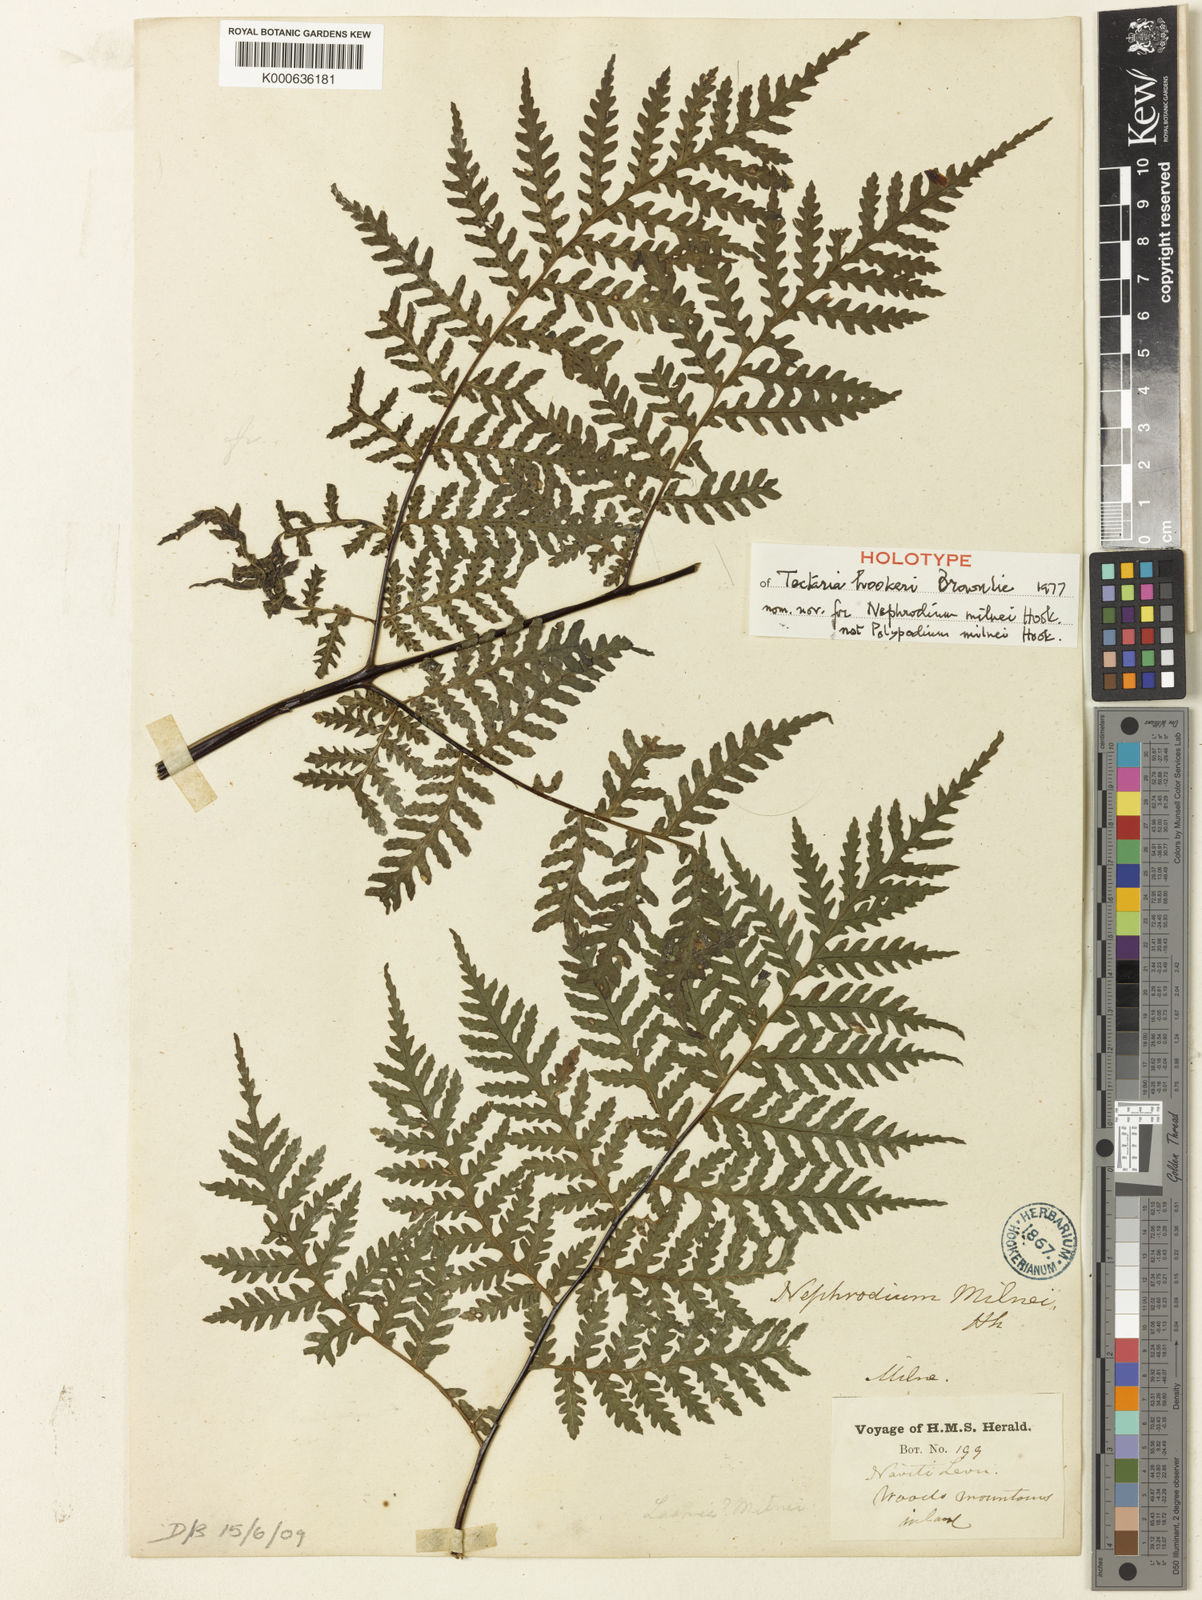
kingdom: Plantae
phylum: Tracheophyta
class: Polypodiopsida
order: Polypodiales
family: Tectariaceae
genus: Tectaria
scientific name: Tectaria hookeri
